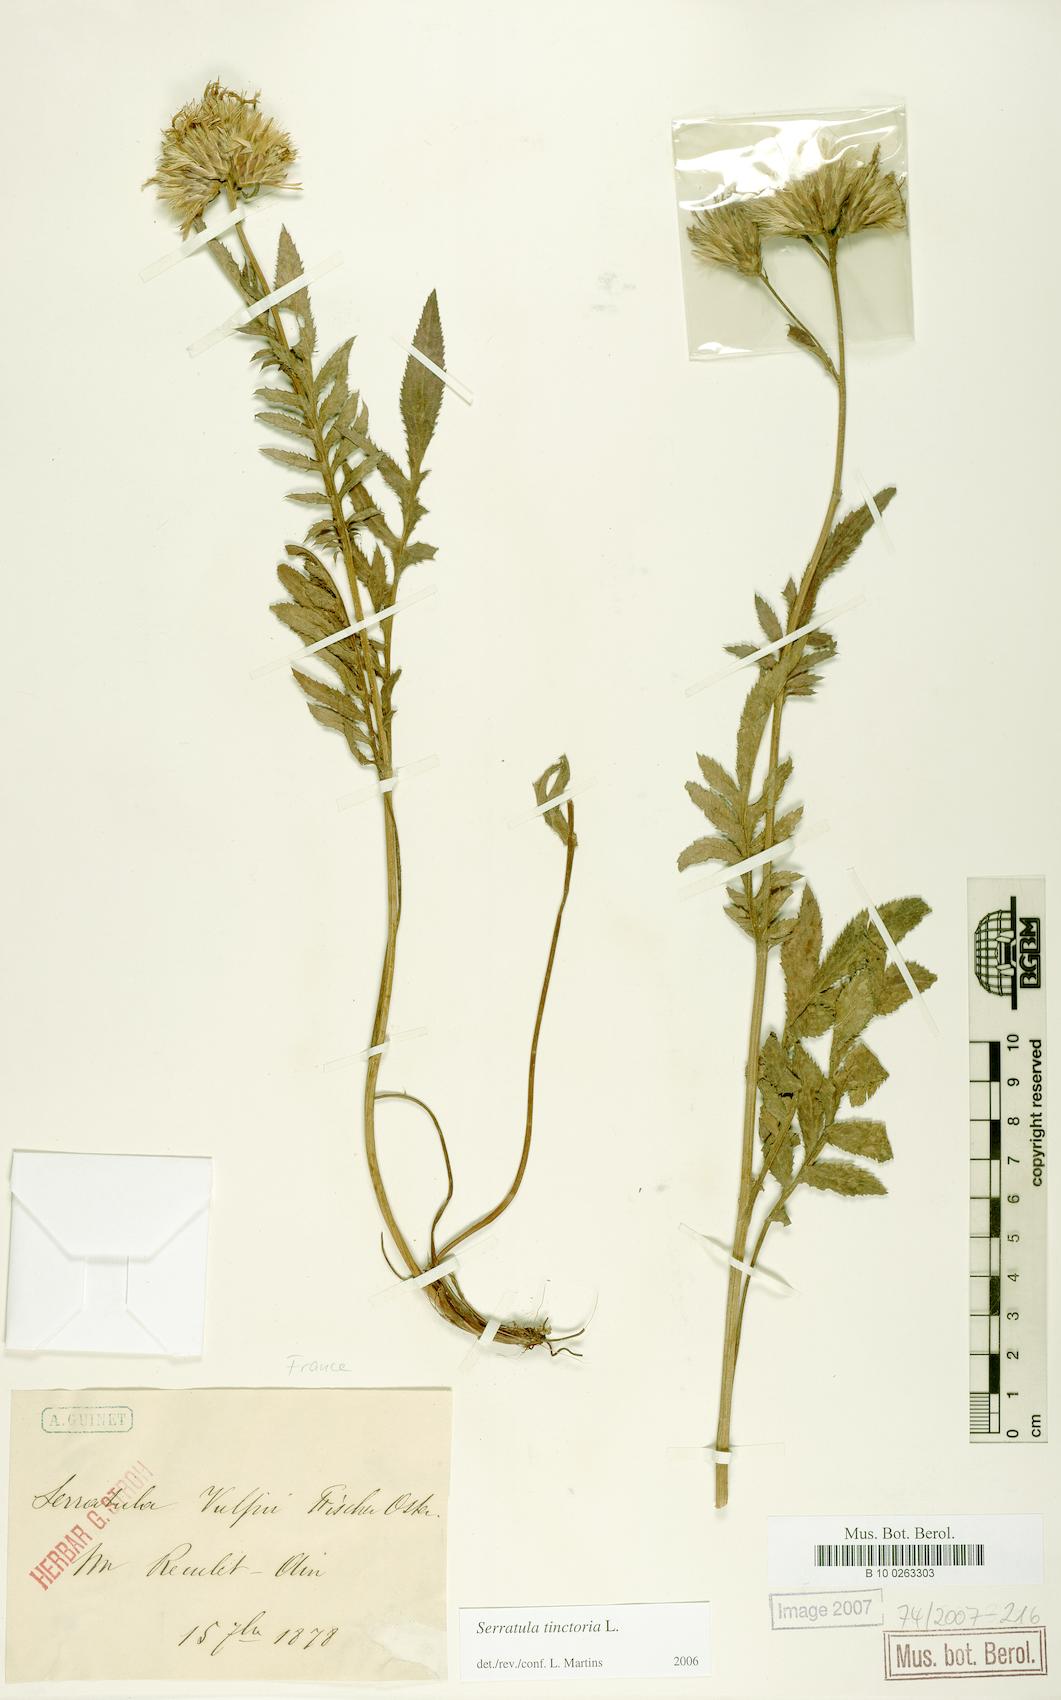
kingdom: Plantae
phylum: Tracheophyta
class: Magnoliopsida
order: Asterales
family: Asteraceae
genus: Serratula
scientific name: Serratula tinctoria
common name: Saw-wort
